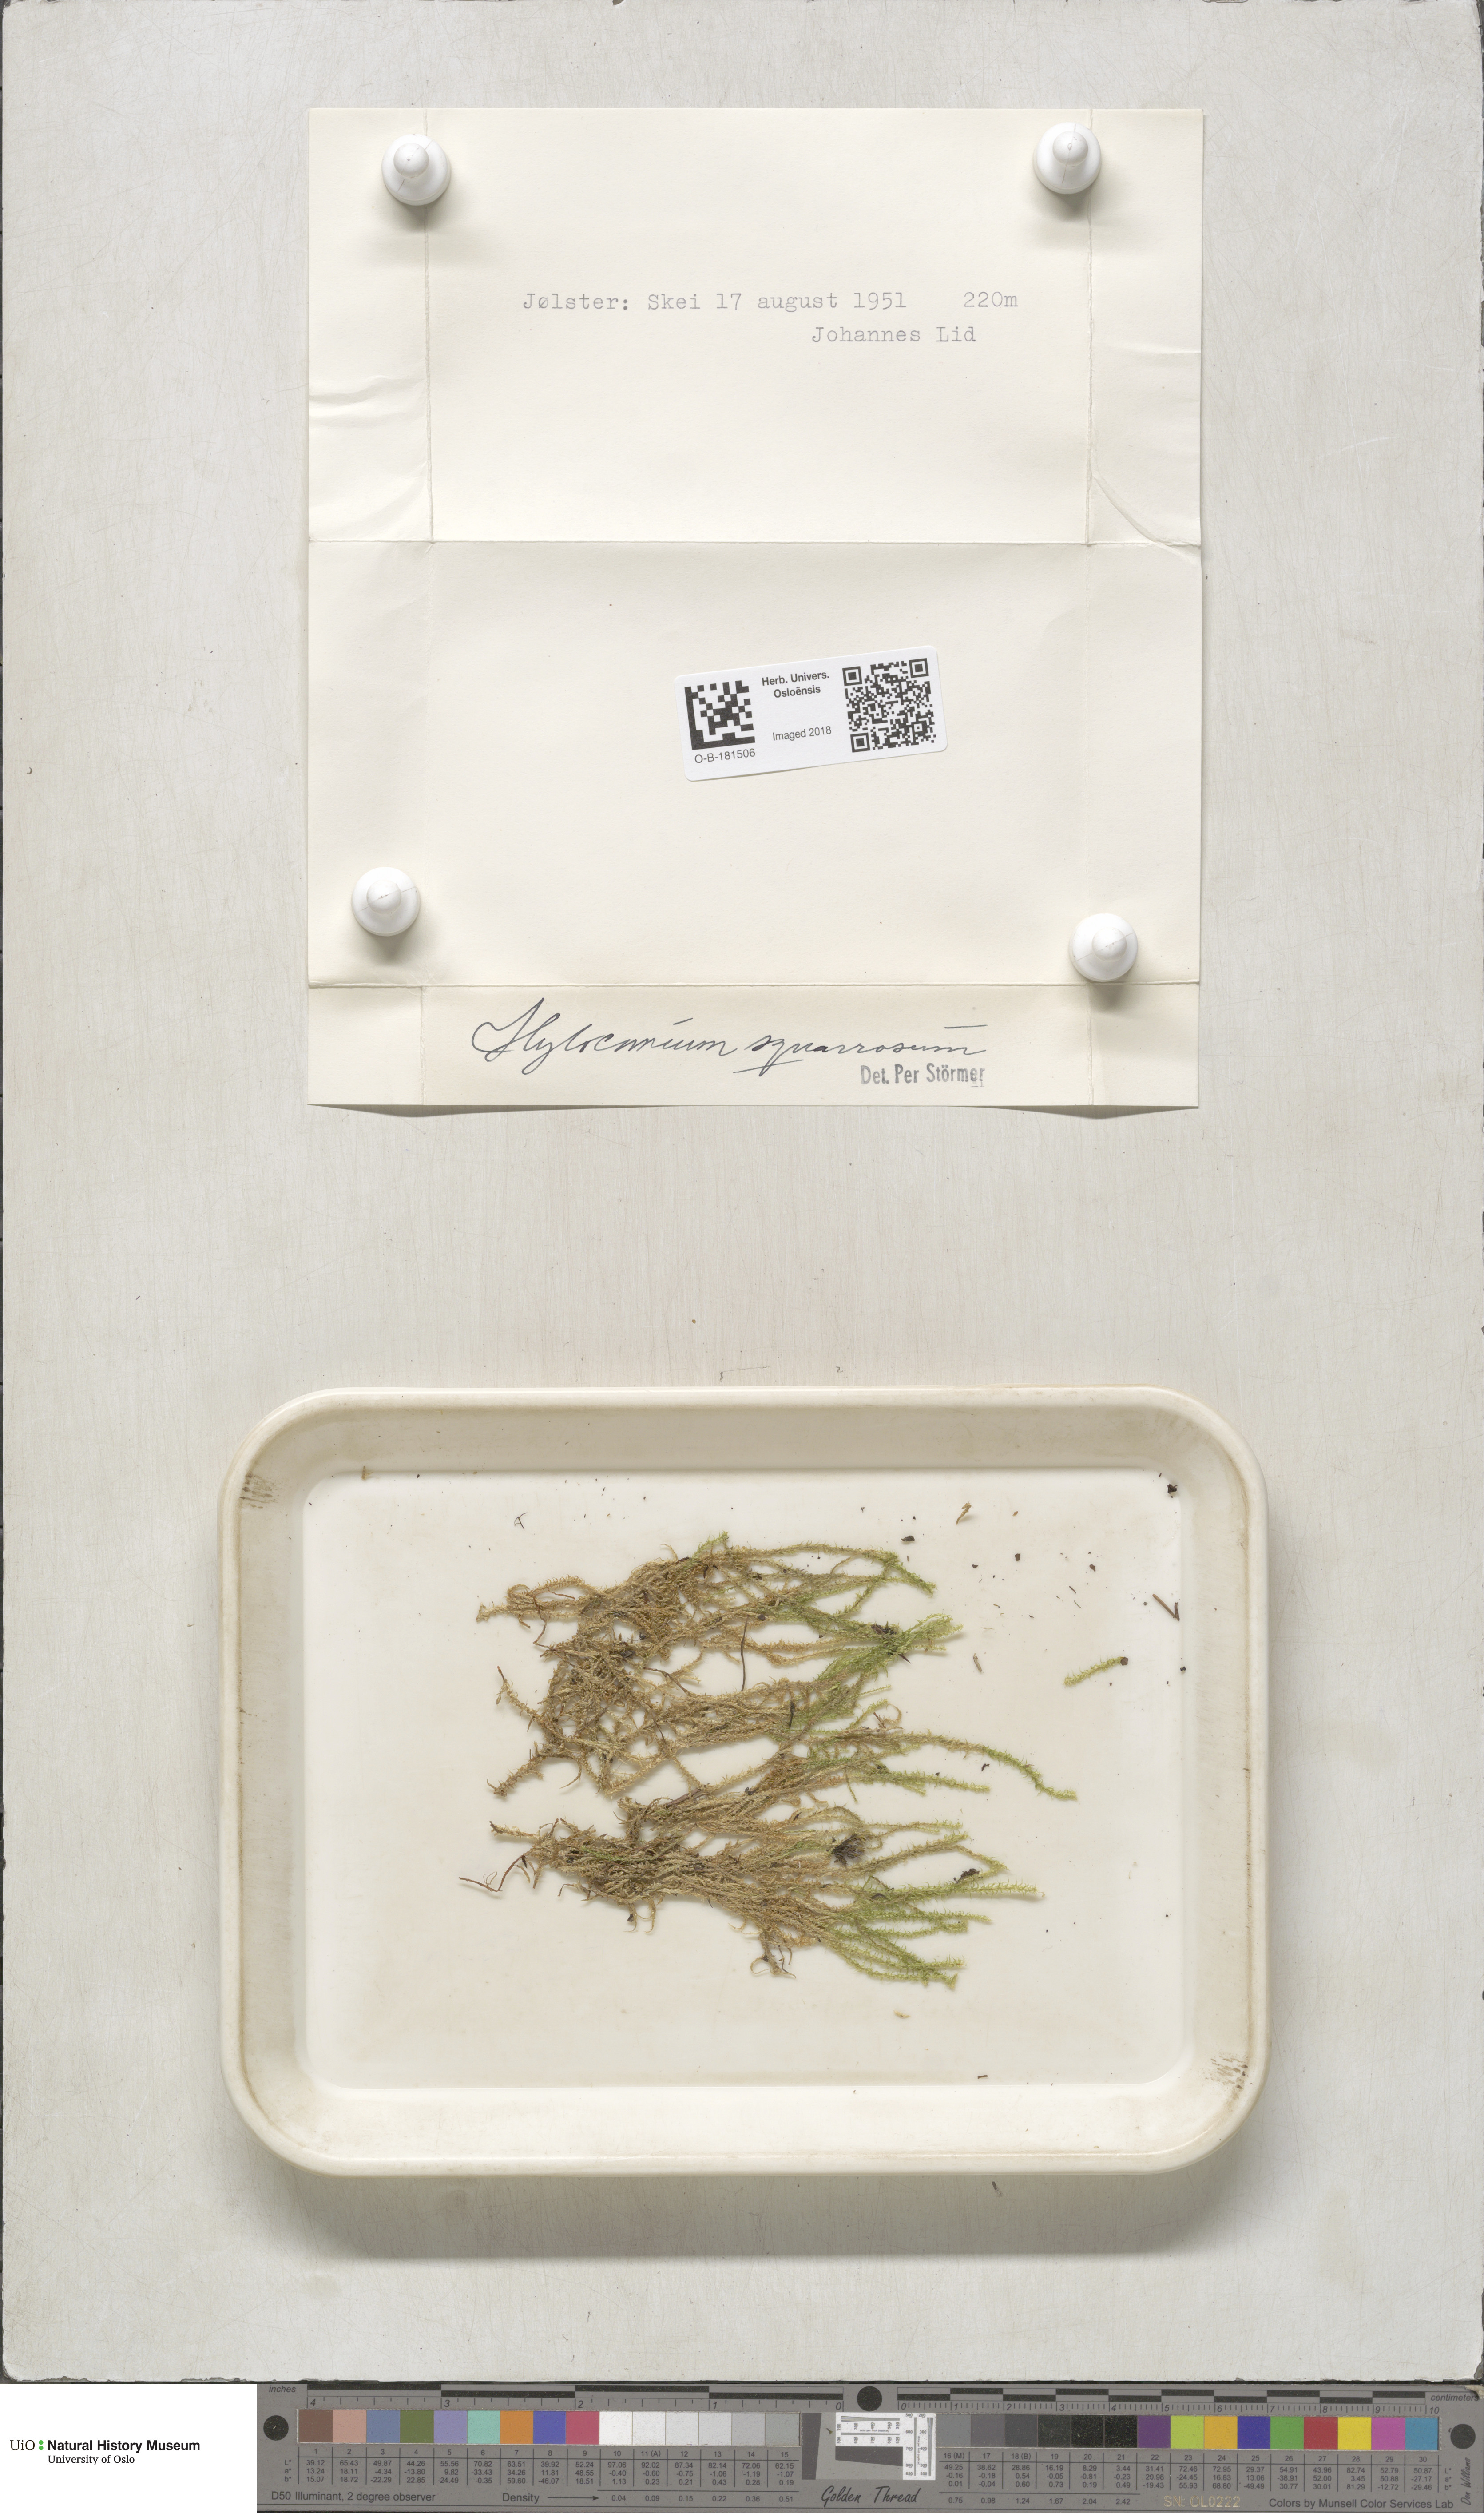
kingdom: Plantae
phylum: Bryophyta
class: Bryopsida
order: Hypnales
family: Hylocomiaceae
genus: Rhytidiadelphus
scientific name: Rhytidiadelphus squarrosus
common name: Springy turf-moss
